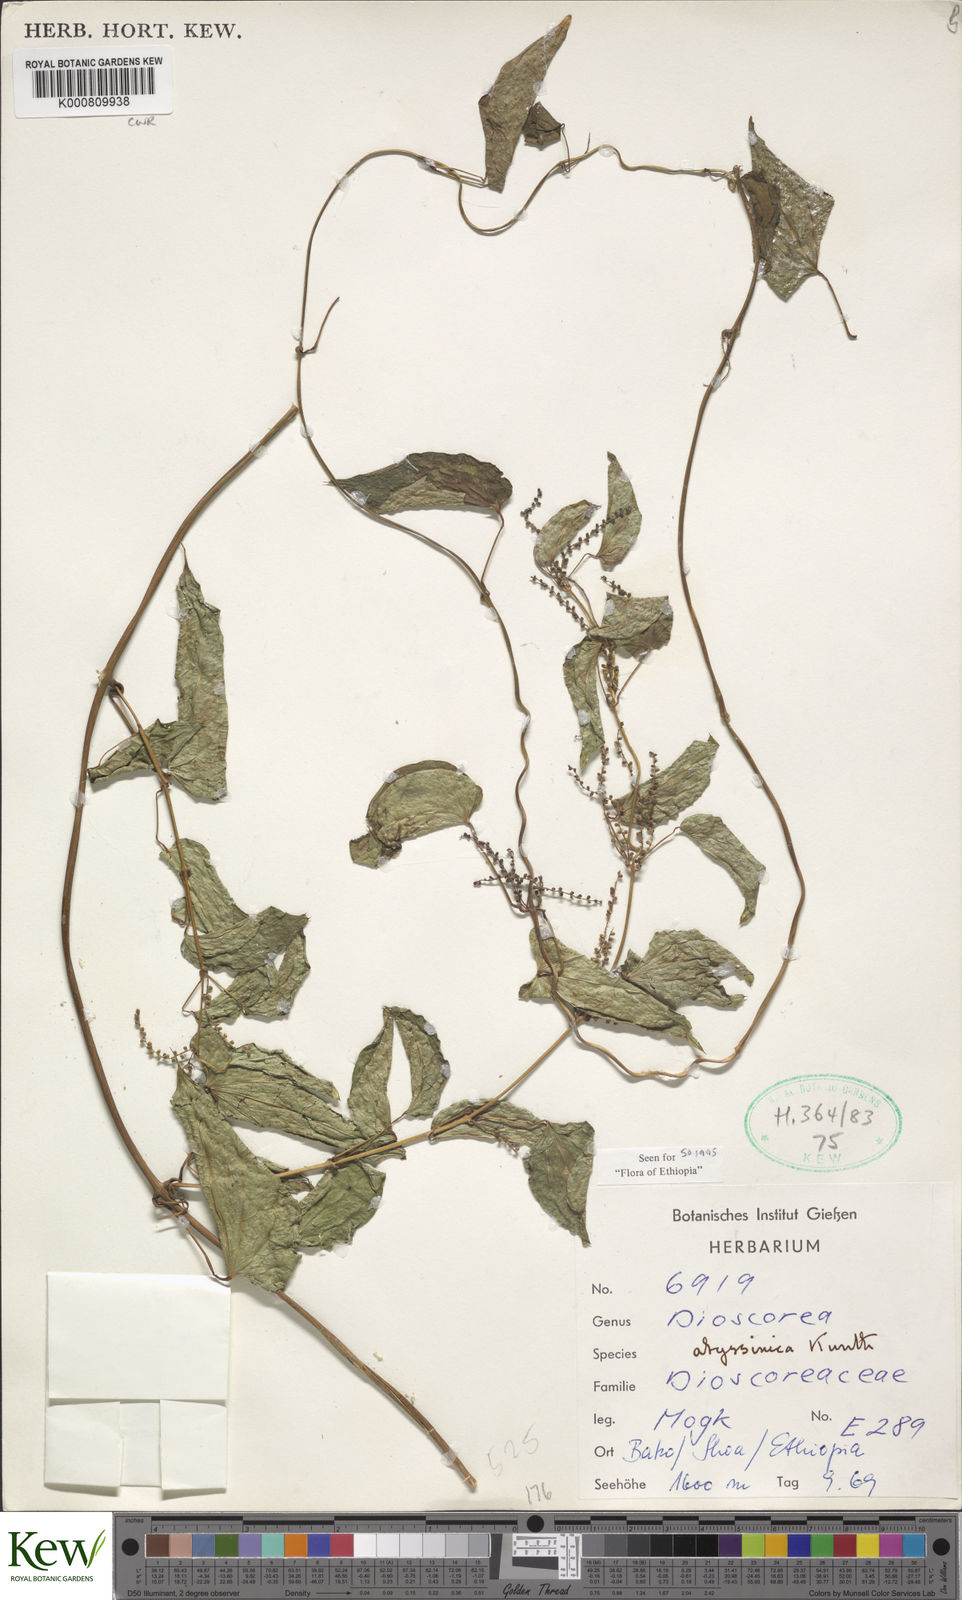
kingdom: Plantae
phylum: Tracheophyta
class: Liliopsida
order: Dioscoreales
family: Dioscoreaceae
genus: Dioscorea
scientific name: Dioscorea abyssinica
